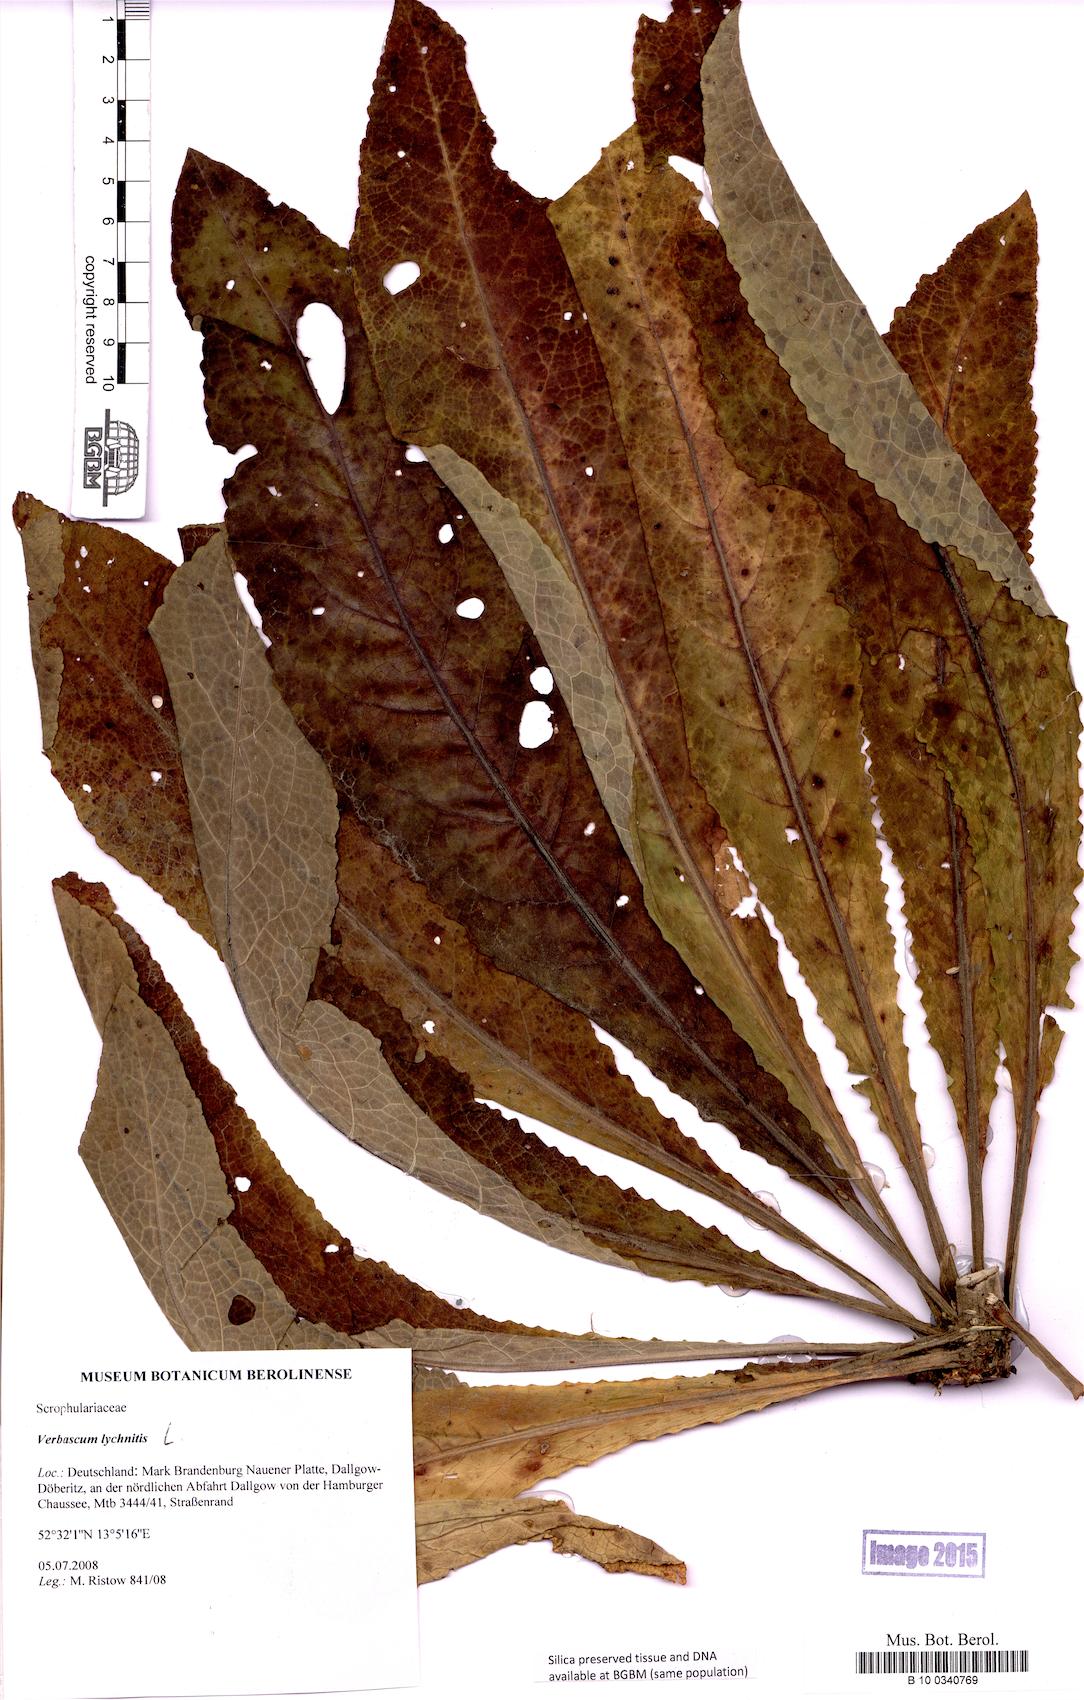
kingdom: Plantae
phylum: Tracheophyta
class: Magnoliopsida
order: Lamiales
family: Scrophulariaceae
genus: Verbascum
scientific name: Verbascum lychnitis
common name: White mullein
